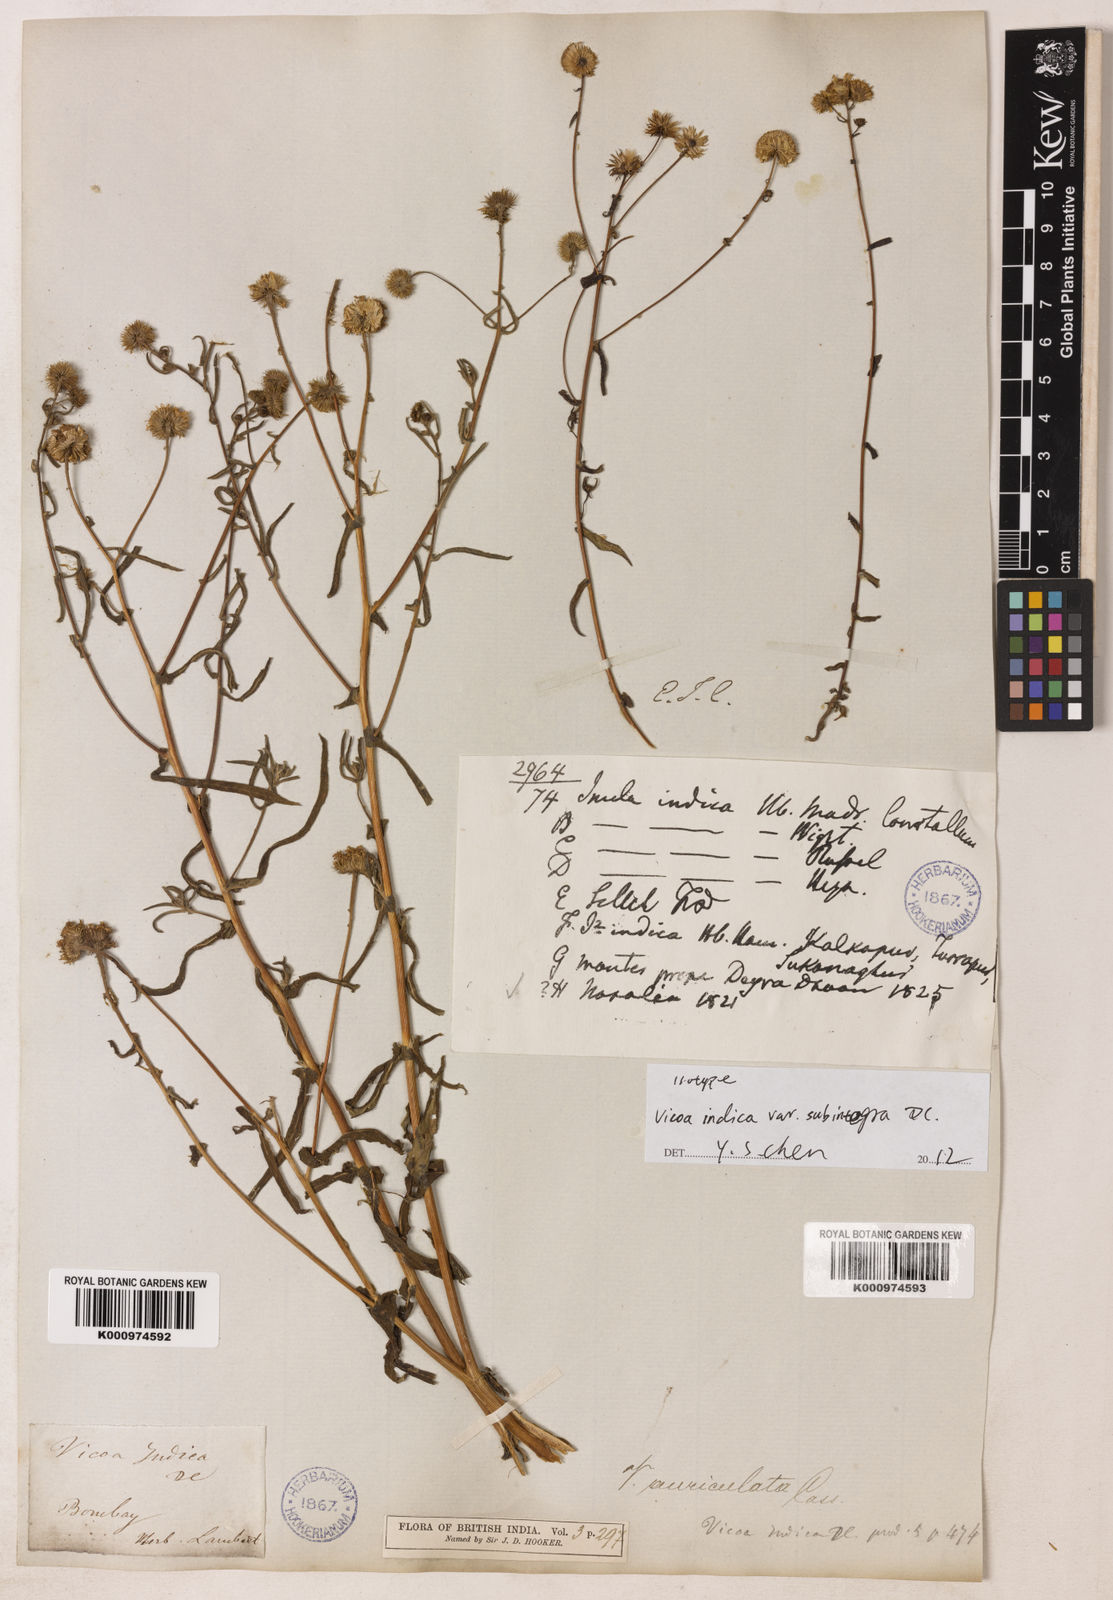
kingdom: Plantae
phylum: Tracheophyta
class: Magnoliopsida
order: Asterales
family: Asteraceae
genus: Vicoa
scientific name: Vicoa indica
